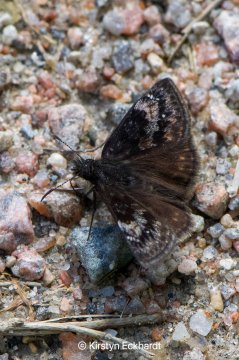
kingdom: Animalia
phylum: Arthropoda
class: Insecta
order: Lepidoptera
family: Hesperiidae
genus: Gesta
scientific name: Gesta
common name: Columbine Duskywing
